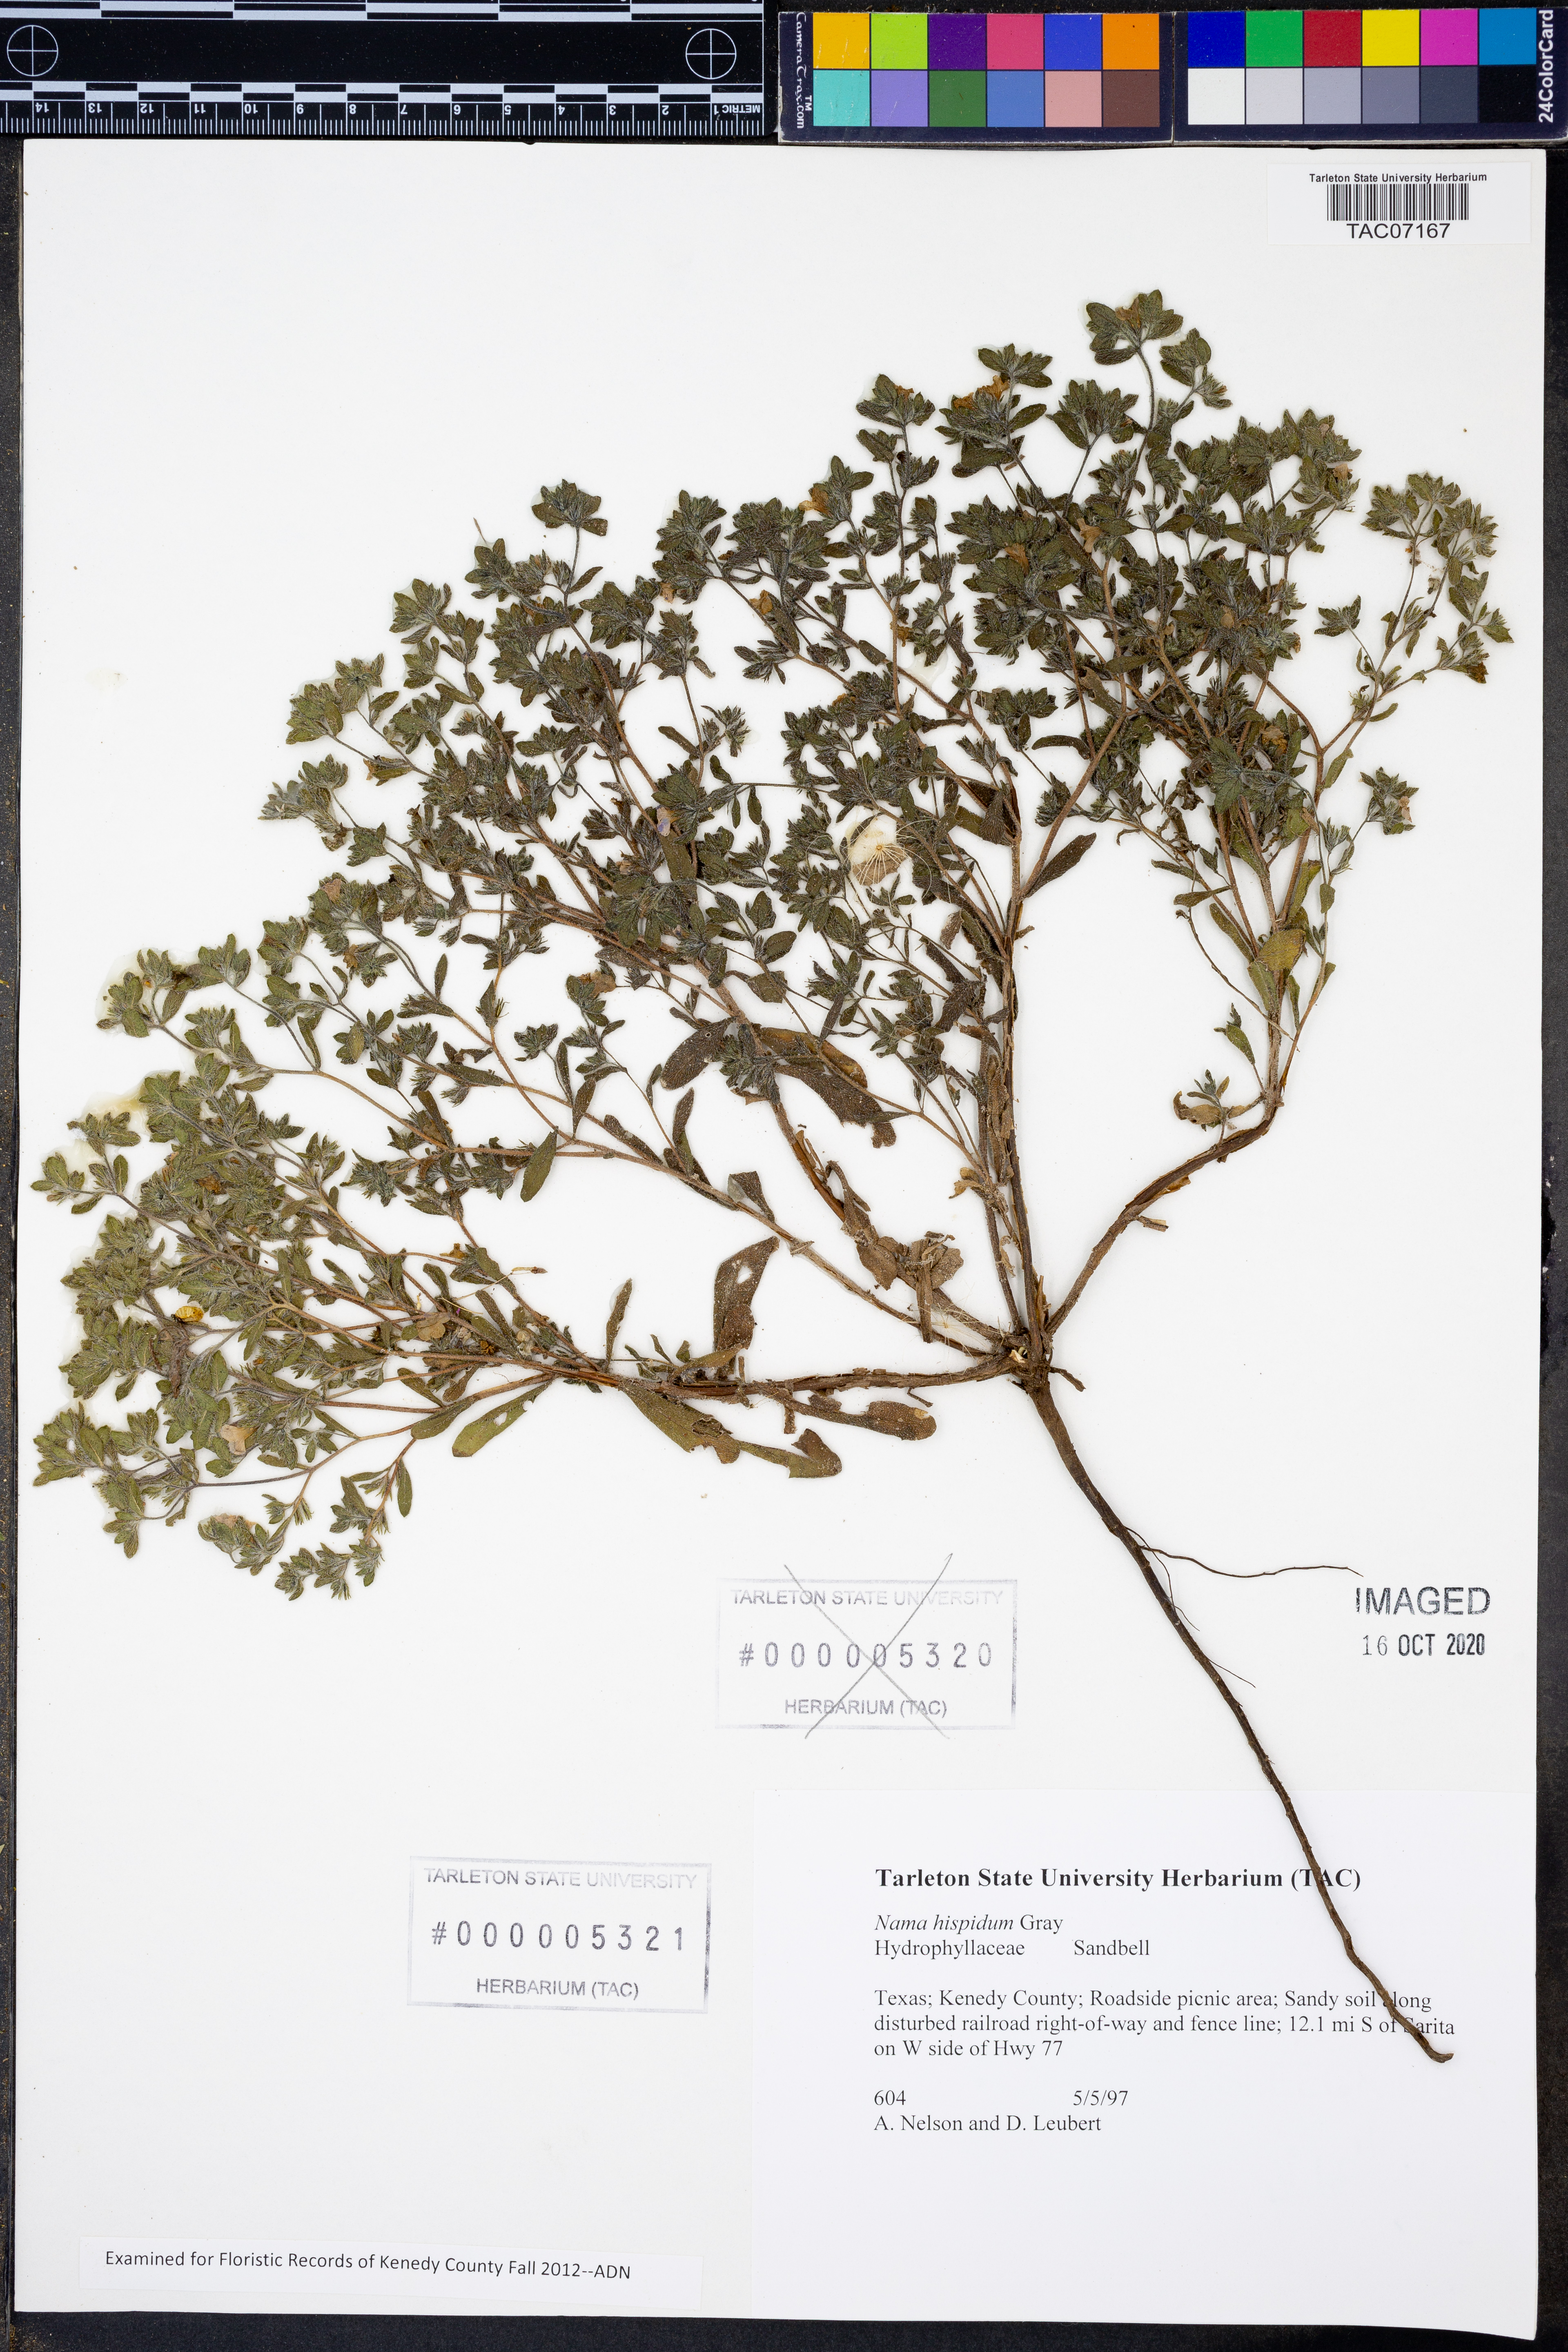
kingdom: Plantae
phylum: Tracheophyta
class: Magnoliopsida
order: Boraginales
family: Namaceae
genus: Nama
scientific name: Nama hispida
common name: Bristly nama
